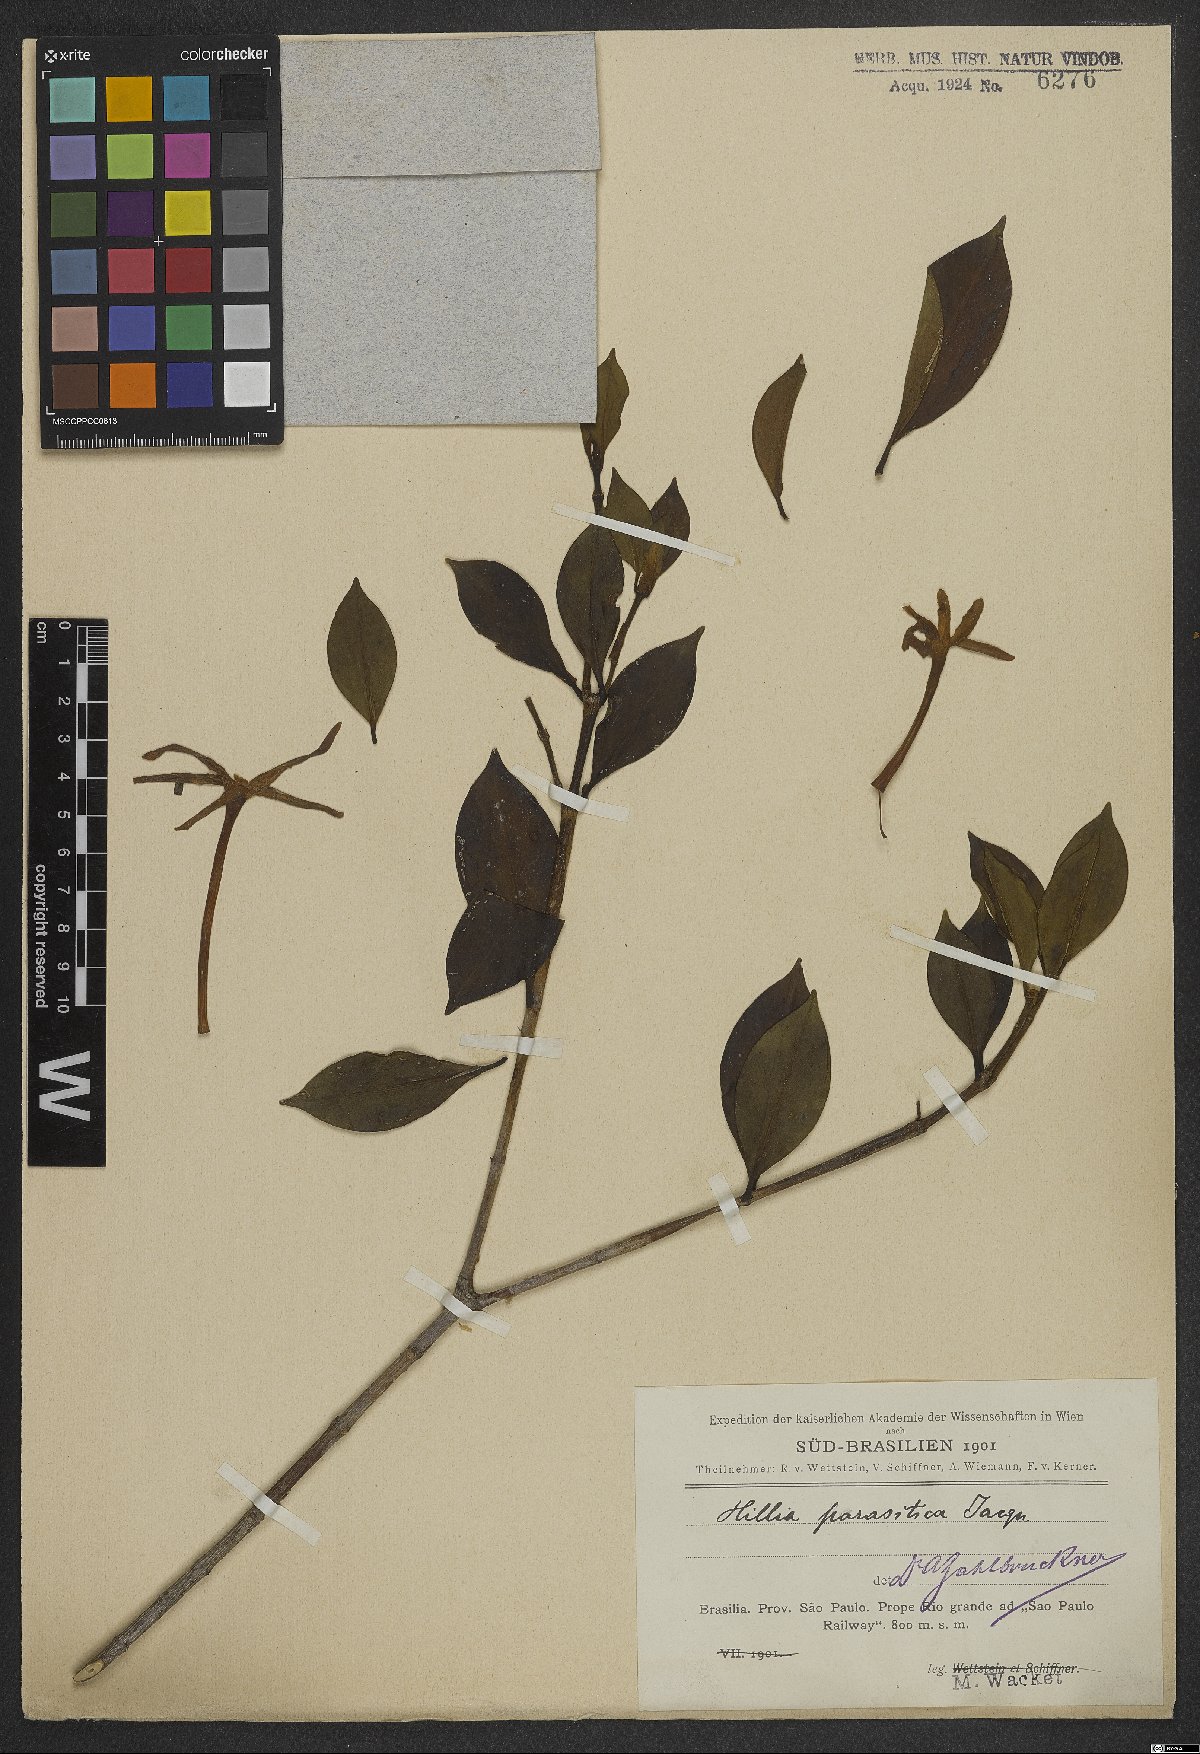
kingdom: Plantae
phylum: Tracheophyta
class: Magnoliopsida
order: Gentianales
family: Rubiaceae
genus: Hillia
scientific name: Hillia parasitica
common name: Morning star
